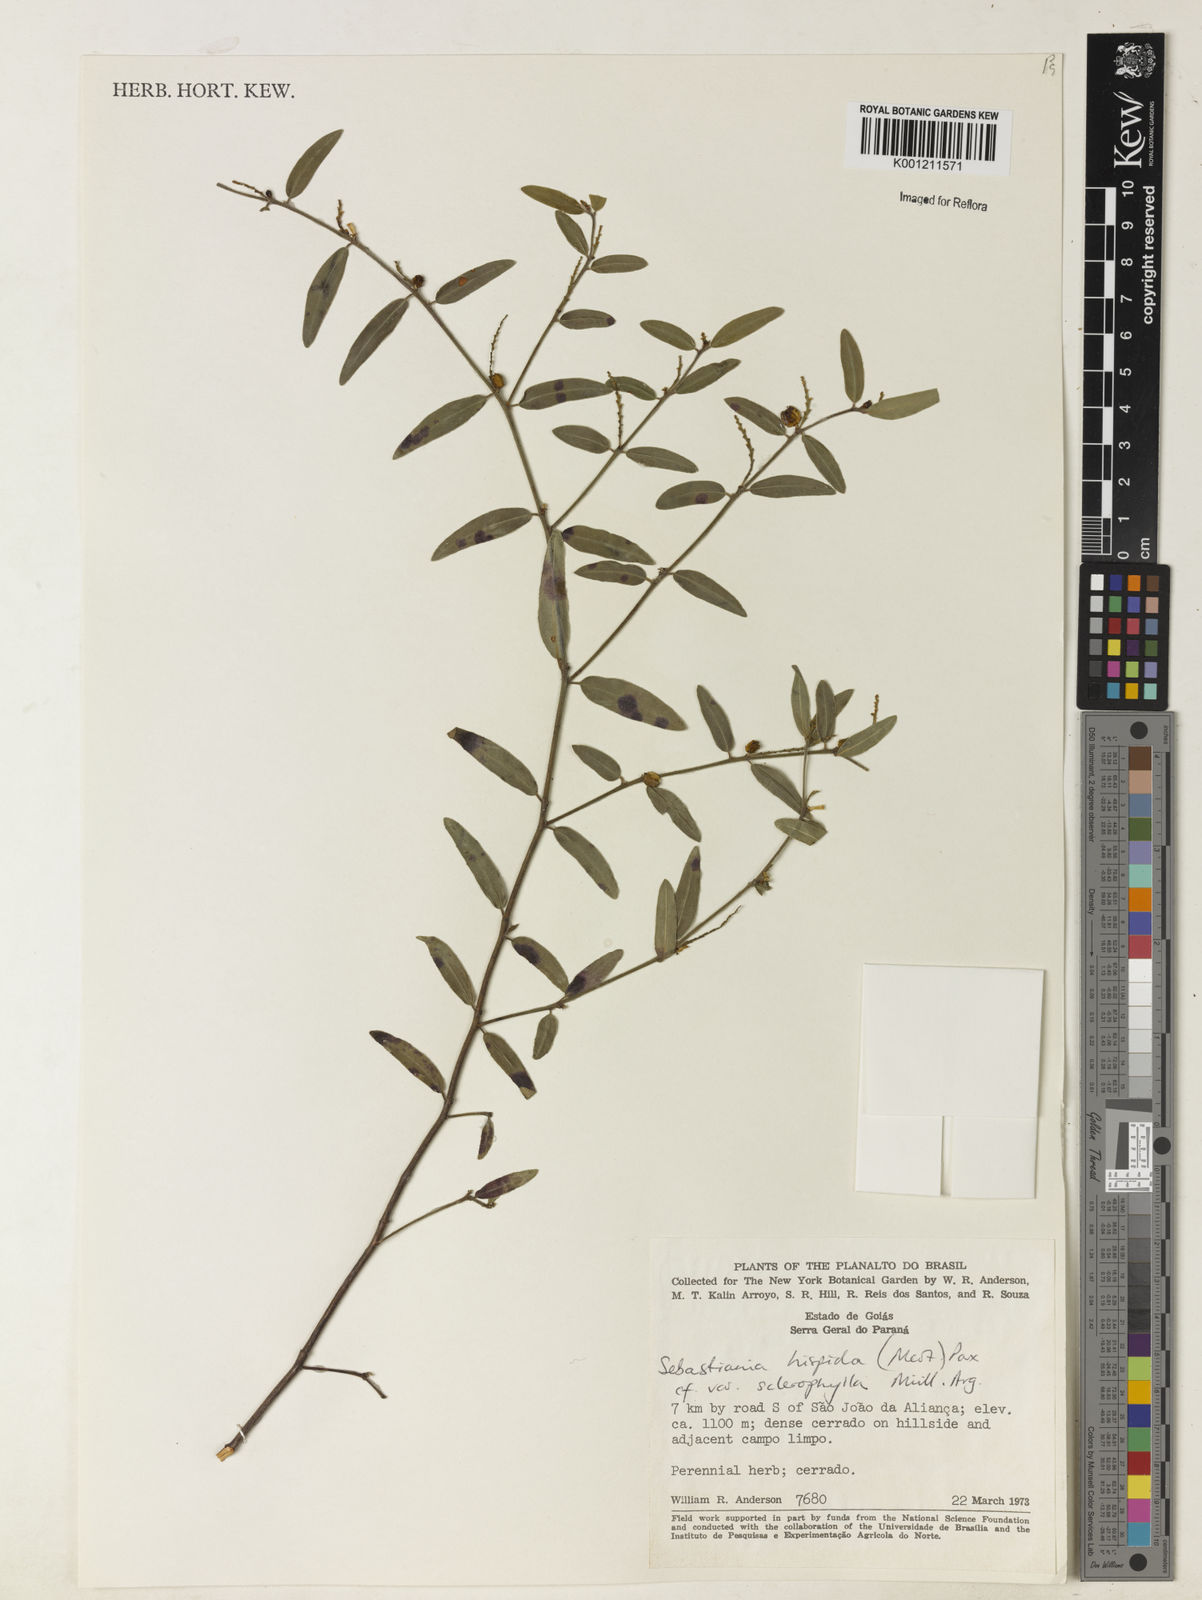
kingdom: Plantae
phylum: Tracheophyta
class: Magnoliopsida
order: Malpighiales
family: Euphorbiaceae
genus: Microstachys
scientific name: Microstachys hispida
